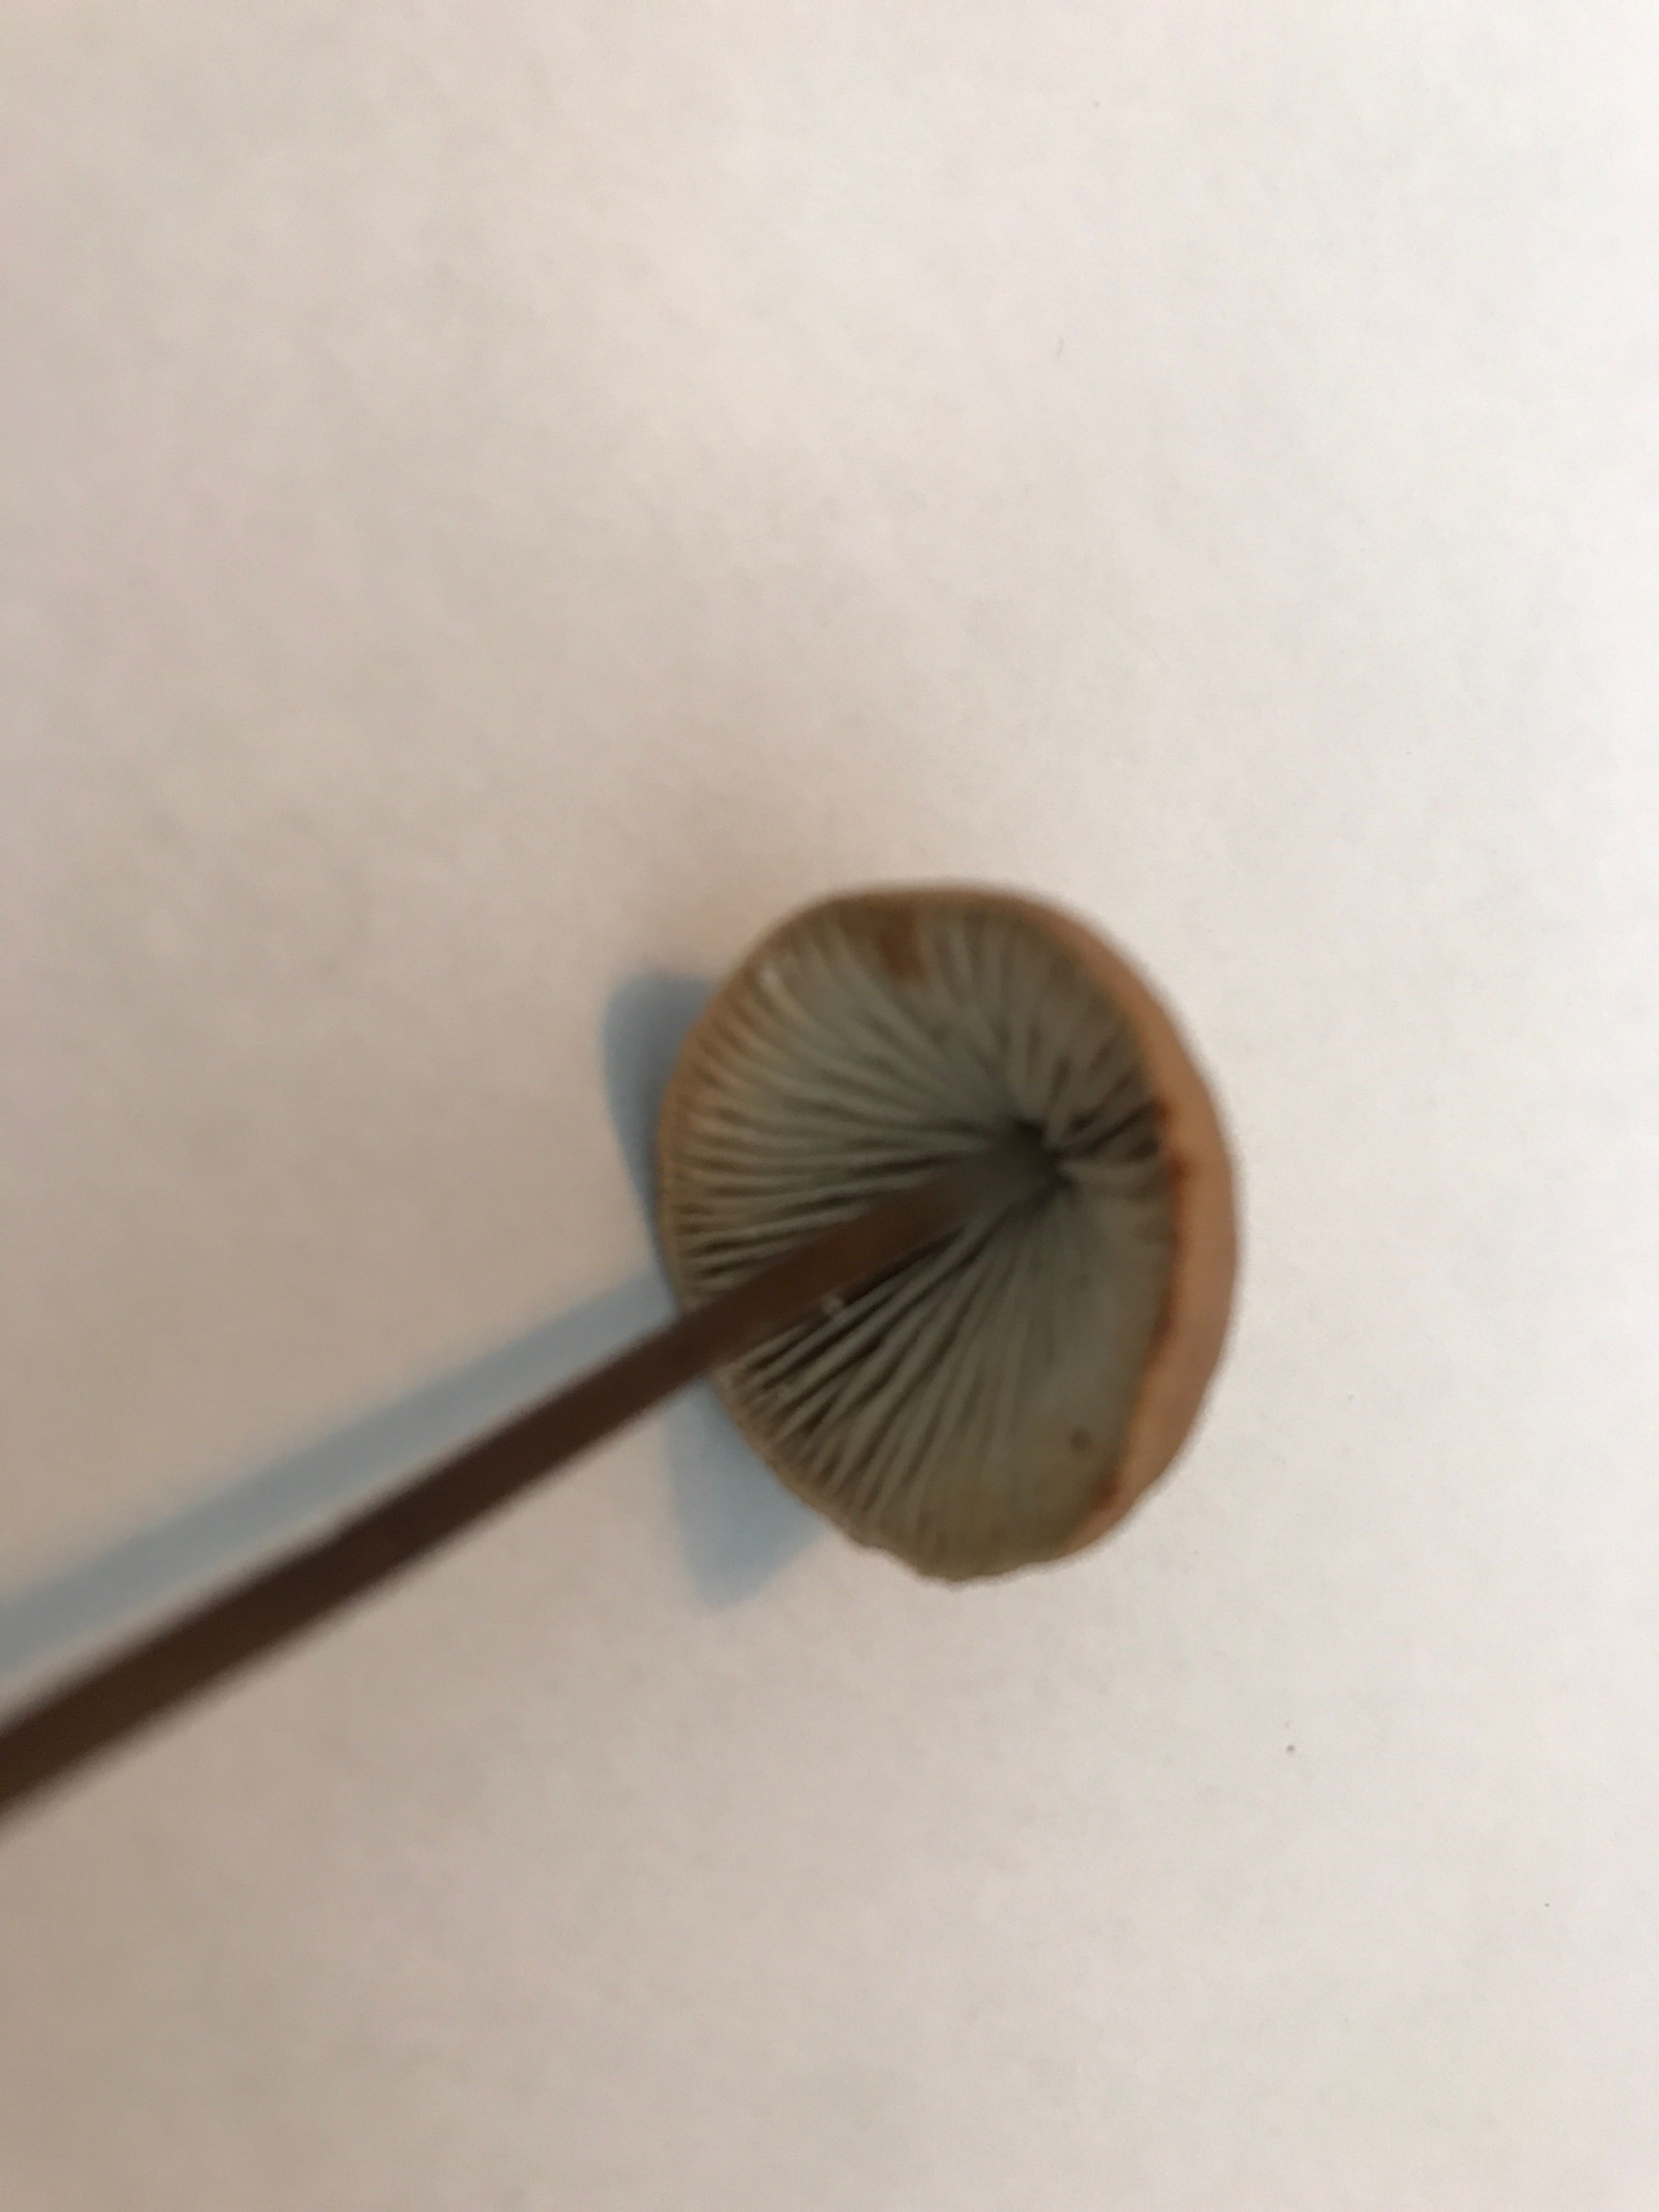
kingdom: Fungi
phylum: Basidiomycota
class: Agaricomycetes
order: Agaricales
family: Omphalotaceae
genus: Mycetinis
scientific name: Mycetinis alliaceus
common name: stor løghat
